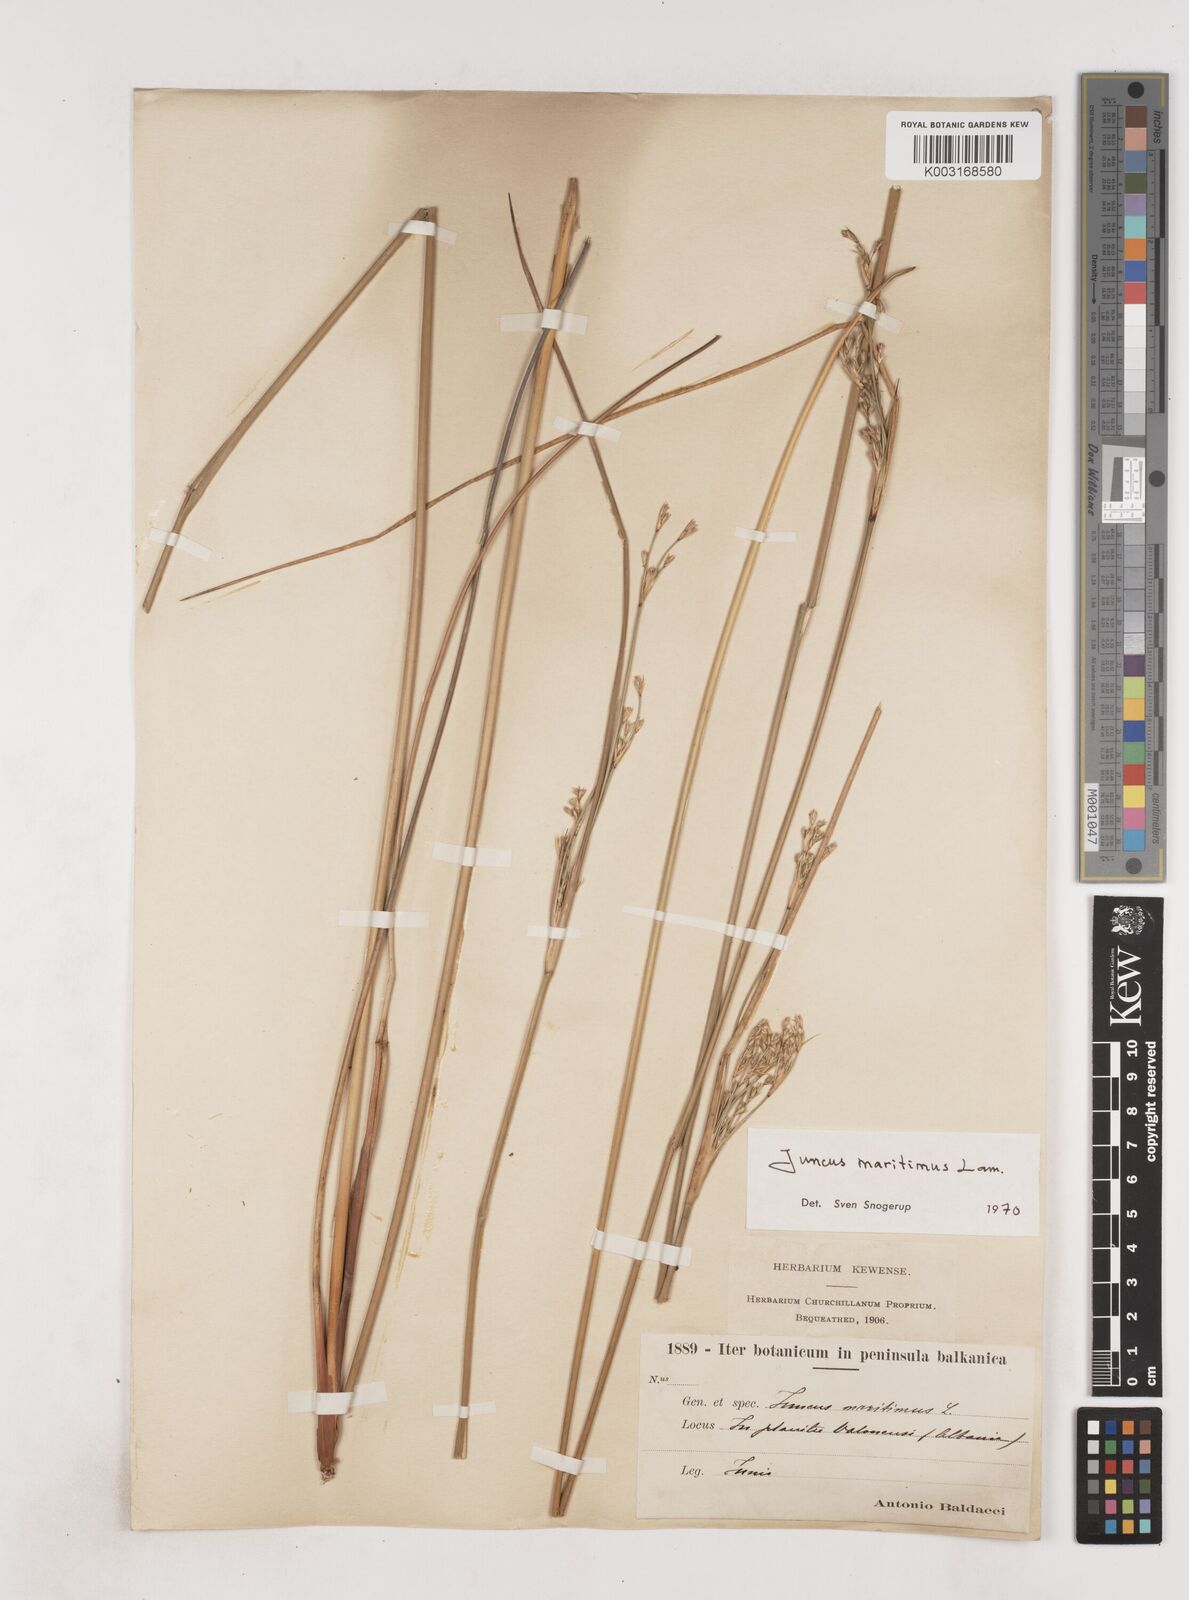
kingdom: Plantae
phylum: Tracheophyta
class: Liliopsida
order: Poales
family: Juncaceae
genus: Juncus
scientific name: Juncus maritimus
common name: Sea rush
